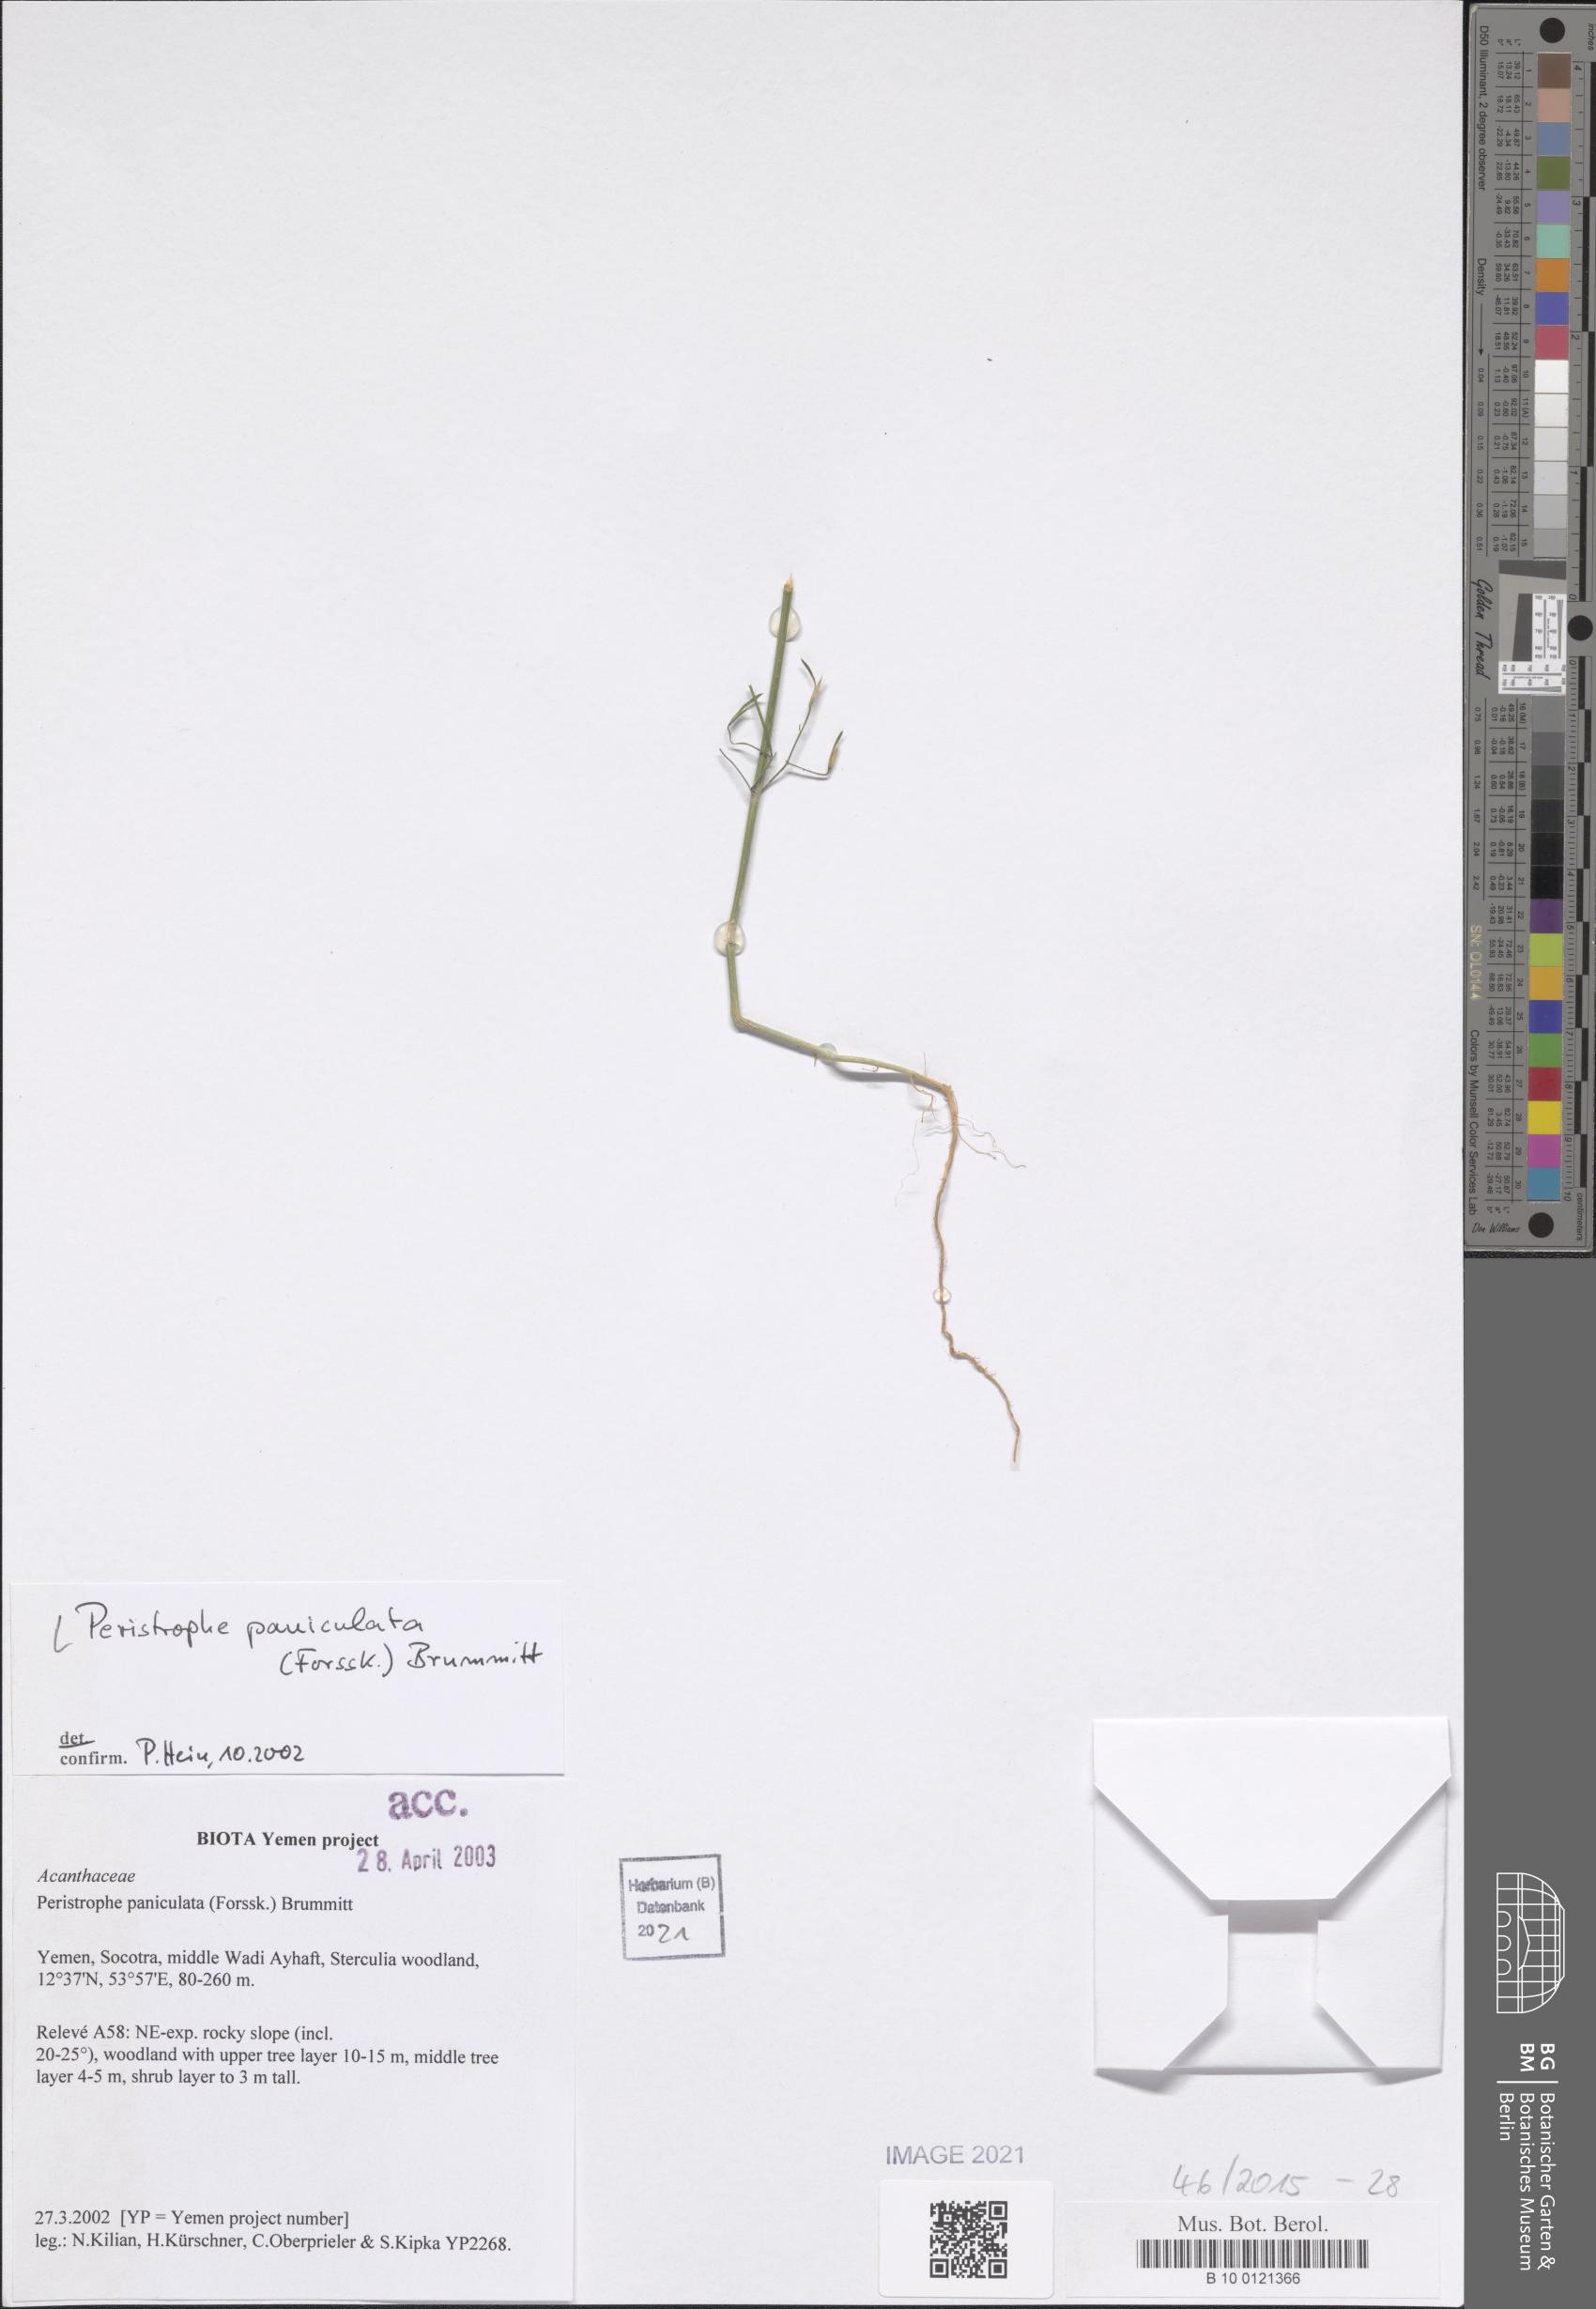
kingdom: Plantae
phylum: Tracheophyta
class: Magnoliopsida
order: Lamiales
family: Acanthaceae
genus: Dicliptera
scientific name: Dicliptera paniculata
